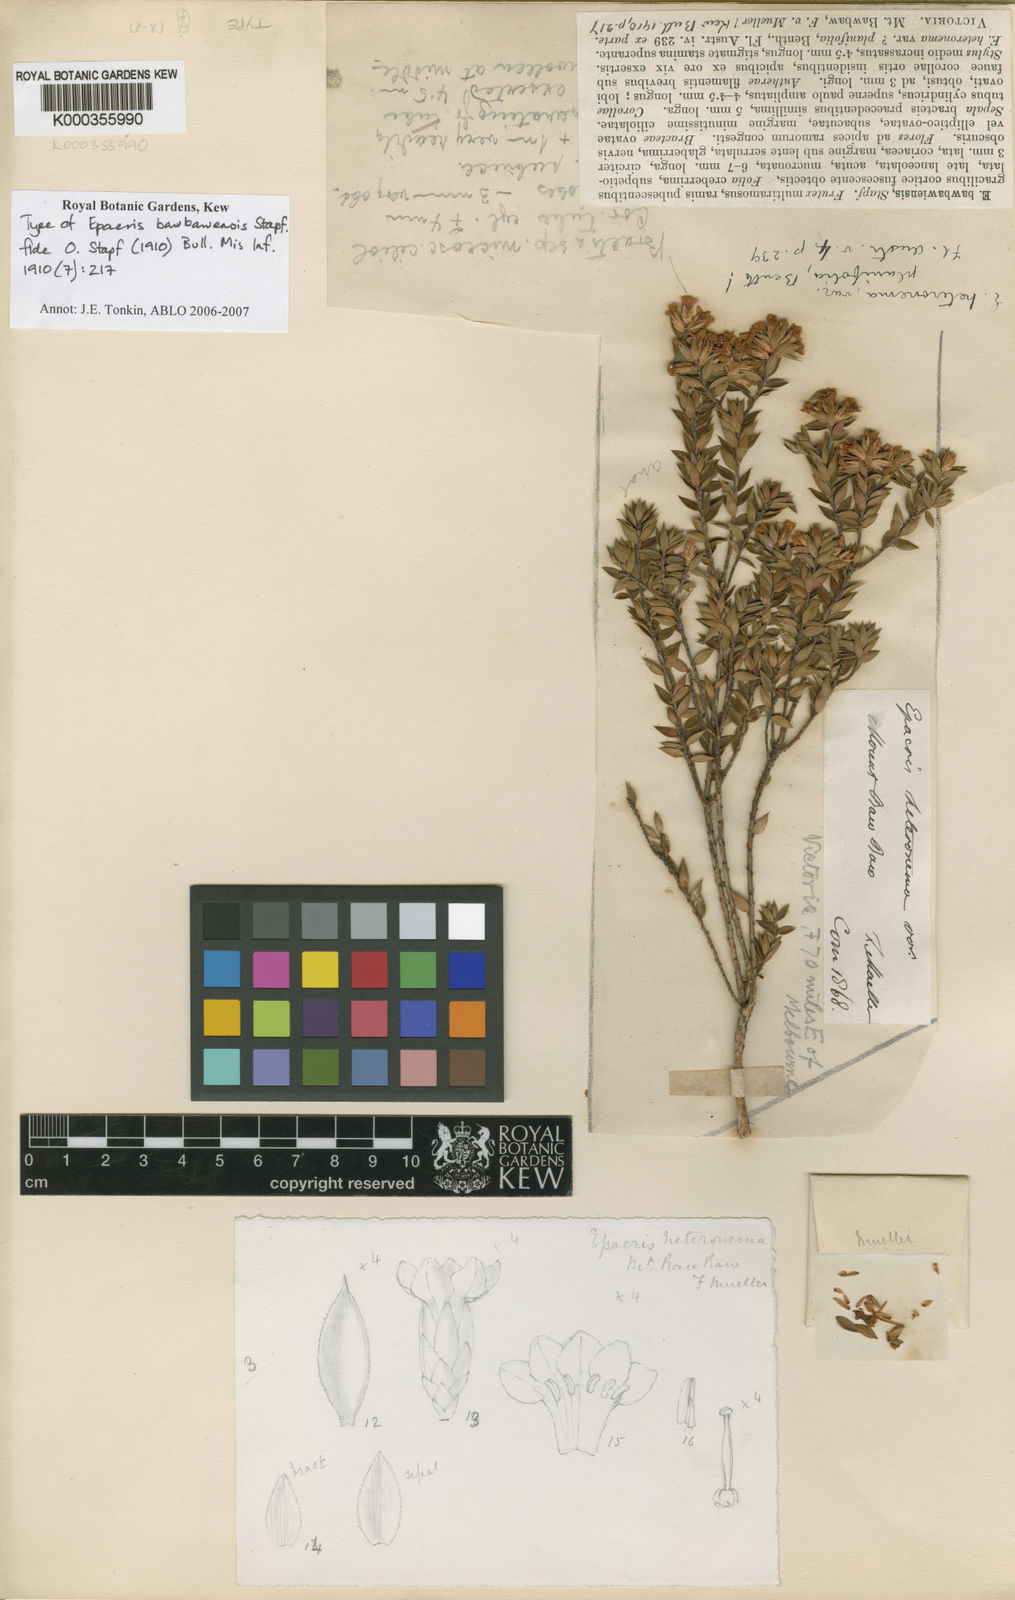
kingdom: Plantae
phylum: Tracheophyta
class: Magnoliopsida
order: Ericales
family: Ericaceae
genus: Epacris
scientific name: Epacris paludosa
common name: Swamp-heath
